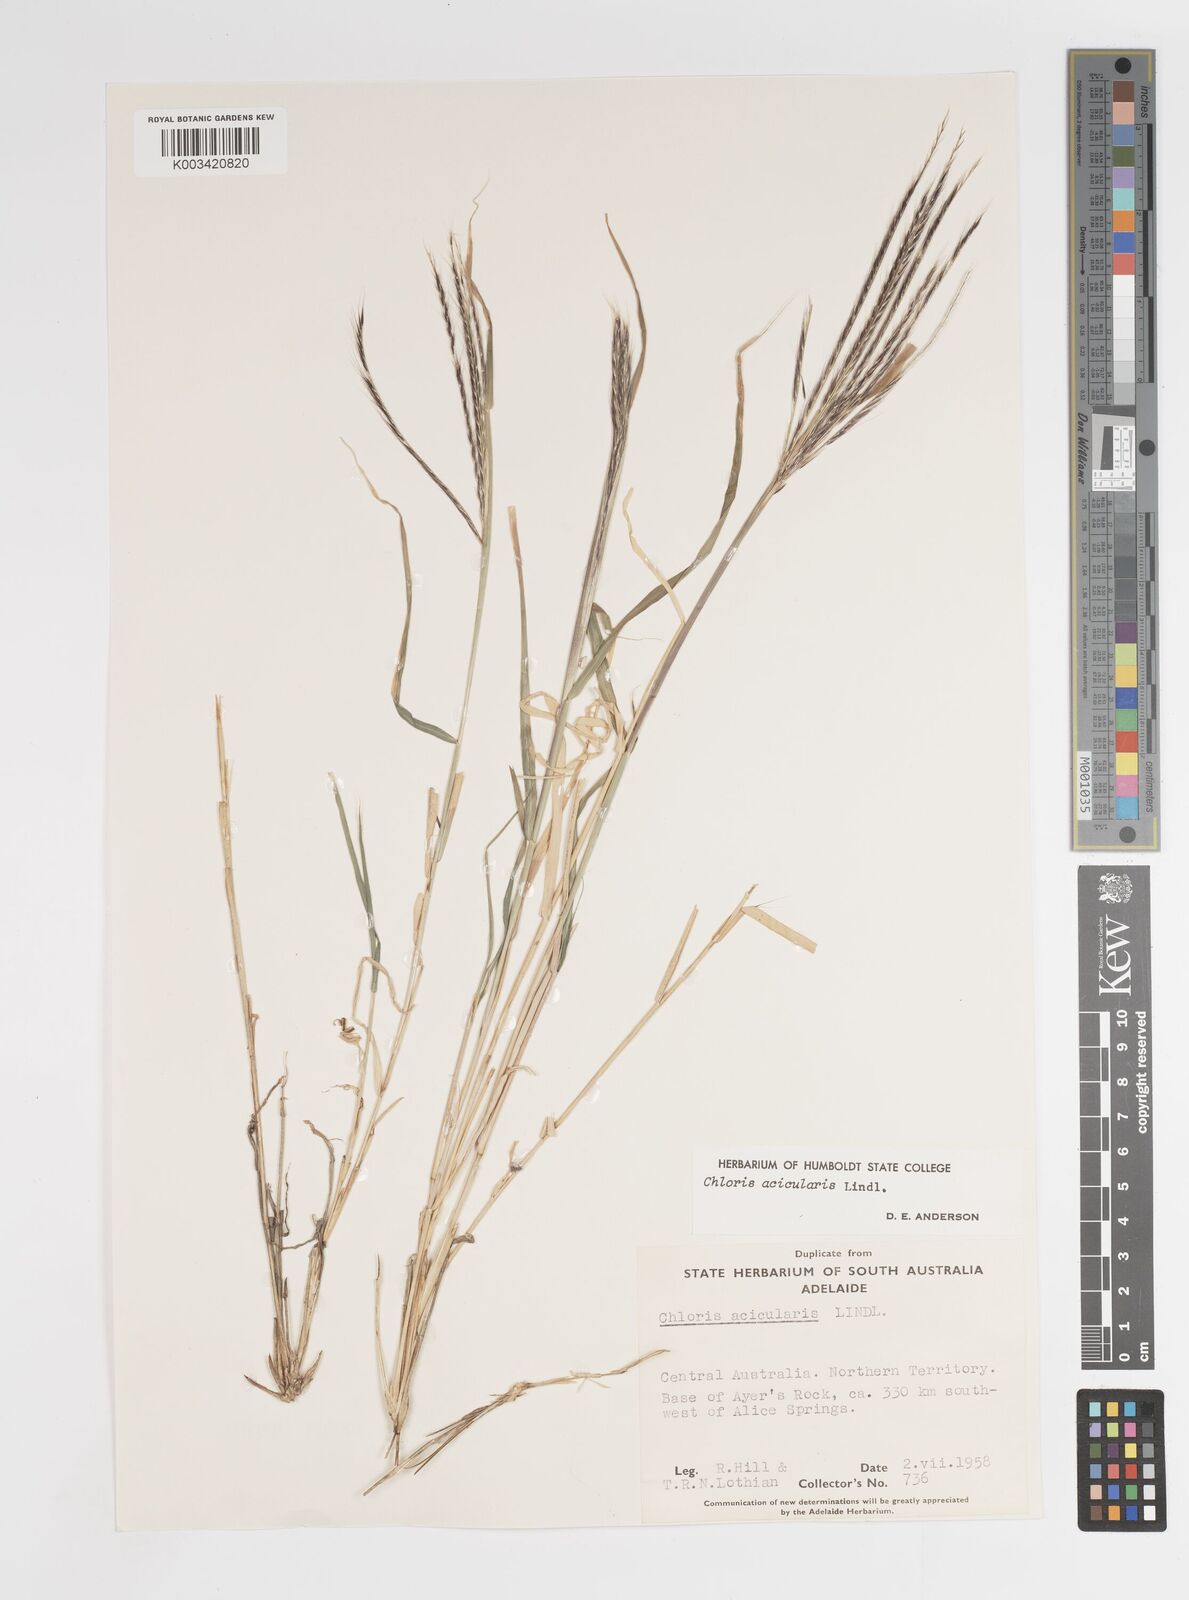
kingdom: Plantae
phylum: Tracheophyta
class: Liliopsida
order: Poales
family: Poaceae
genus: Enteropogon
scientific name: Enteropogon acicularis
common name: Curly windmill grass
